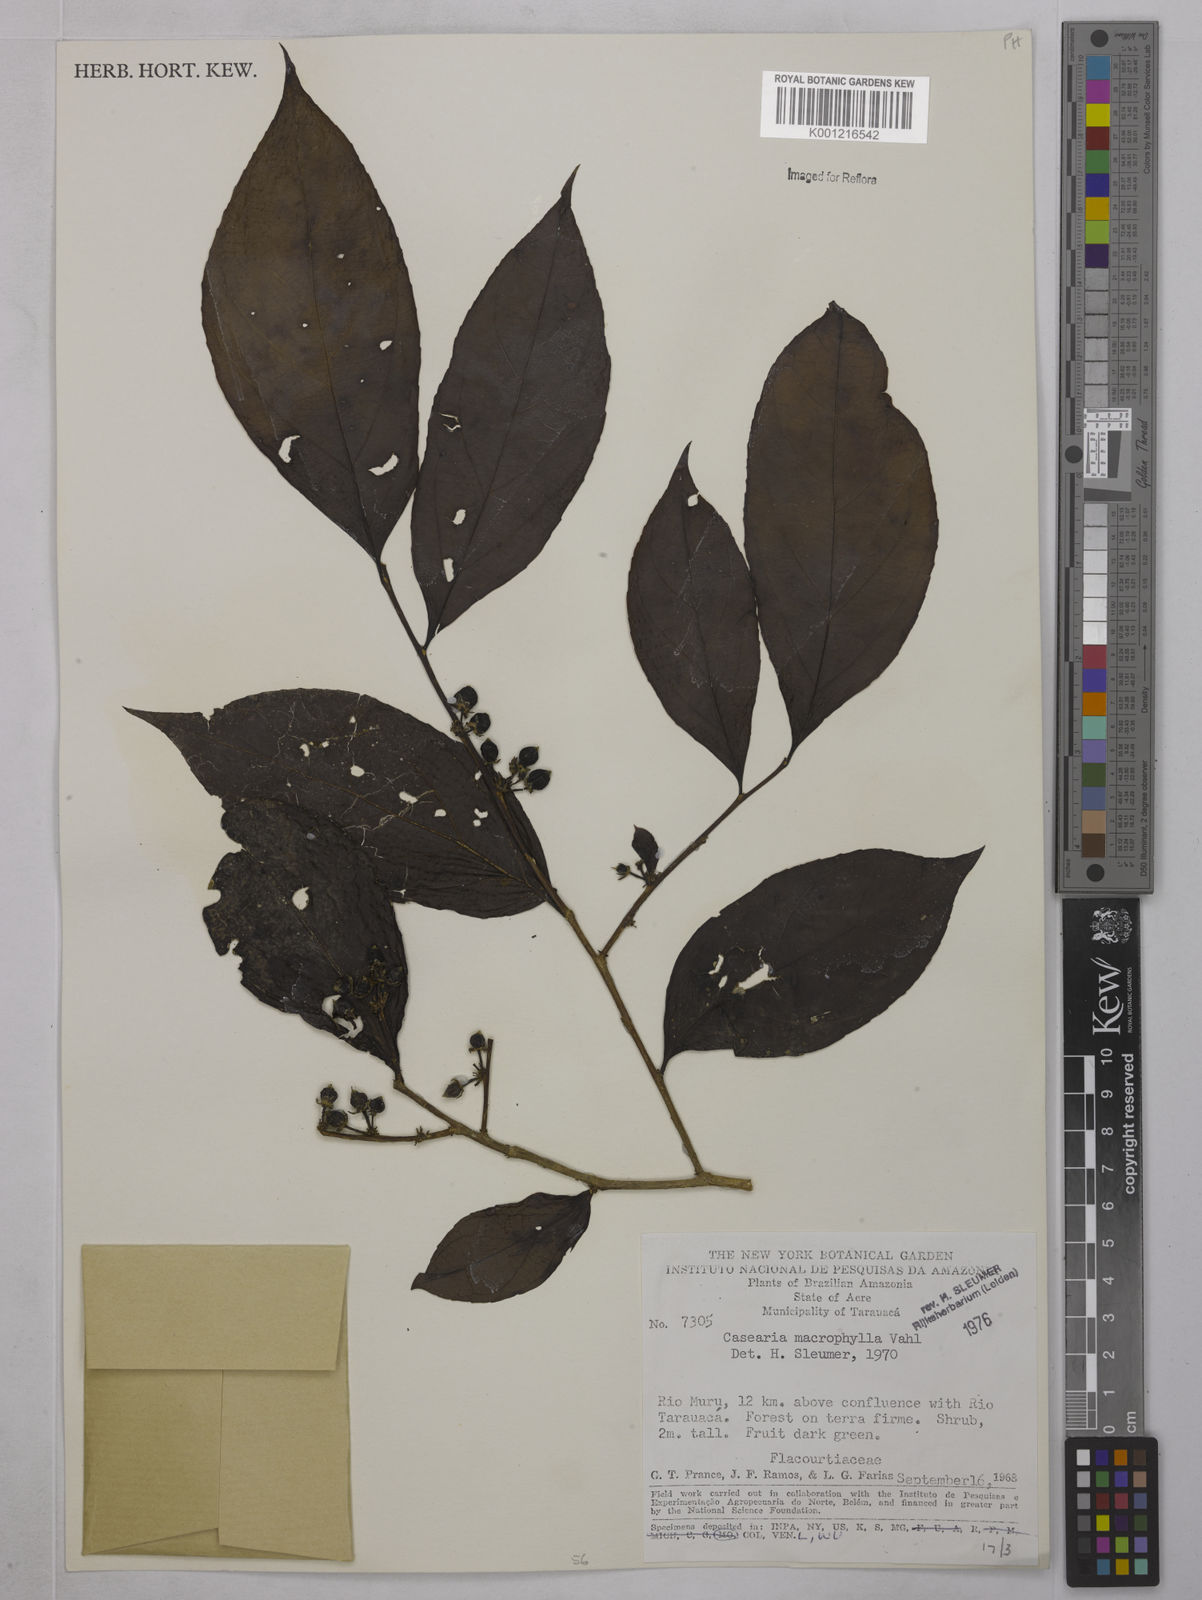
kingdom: Plantae
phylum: Tracheophyta
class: Magnoliopsida
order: Malpighiales
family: Salicaceae
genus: Casearia
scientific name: Casearia pitumba
